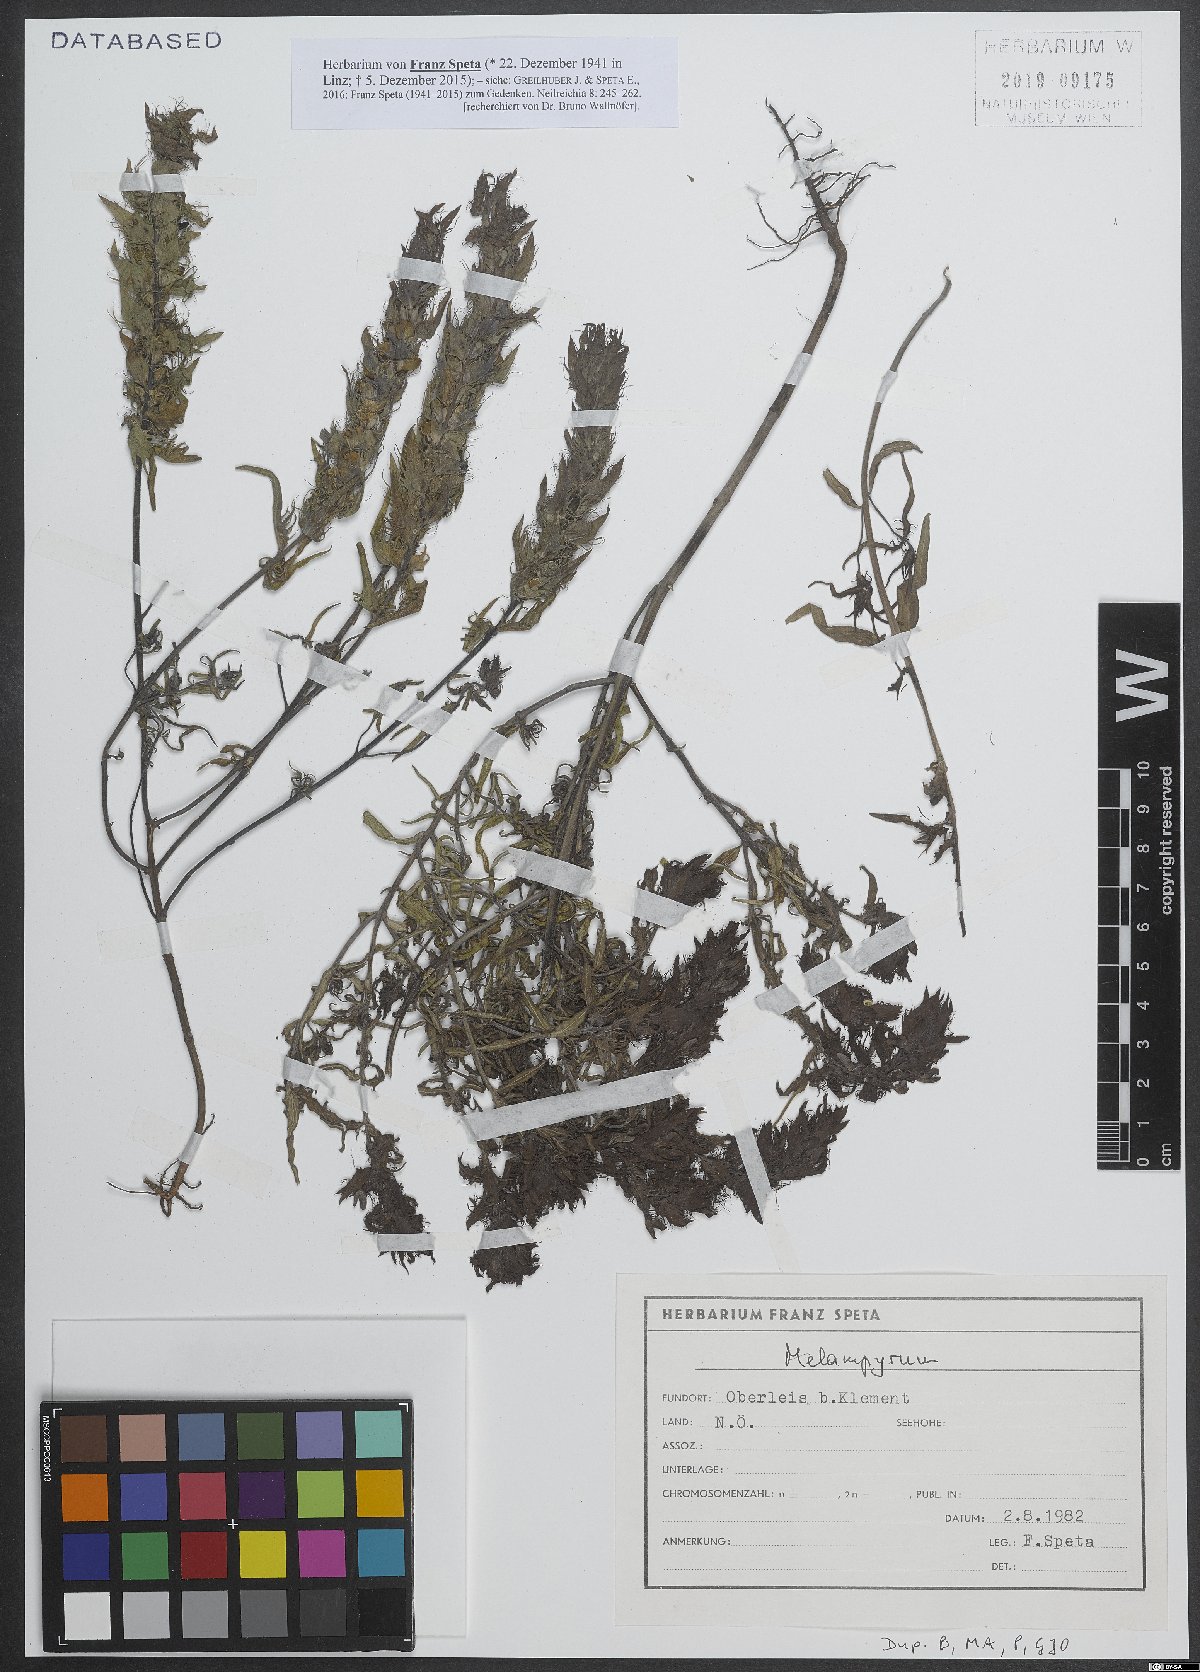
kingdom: Plantae
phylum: Tracheophyta
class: Magnoliopsida
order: Lamiales
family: Orobanchaceae
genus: Melampyrum
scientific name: Melampyrum
